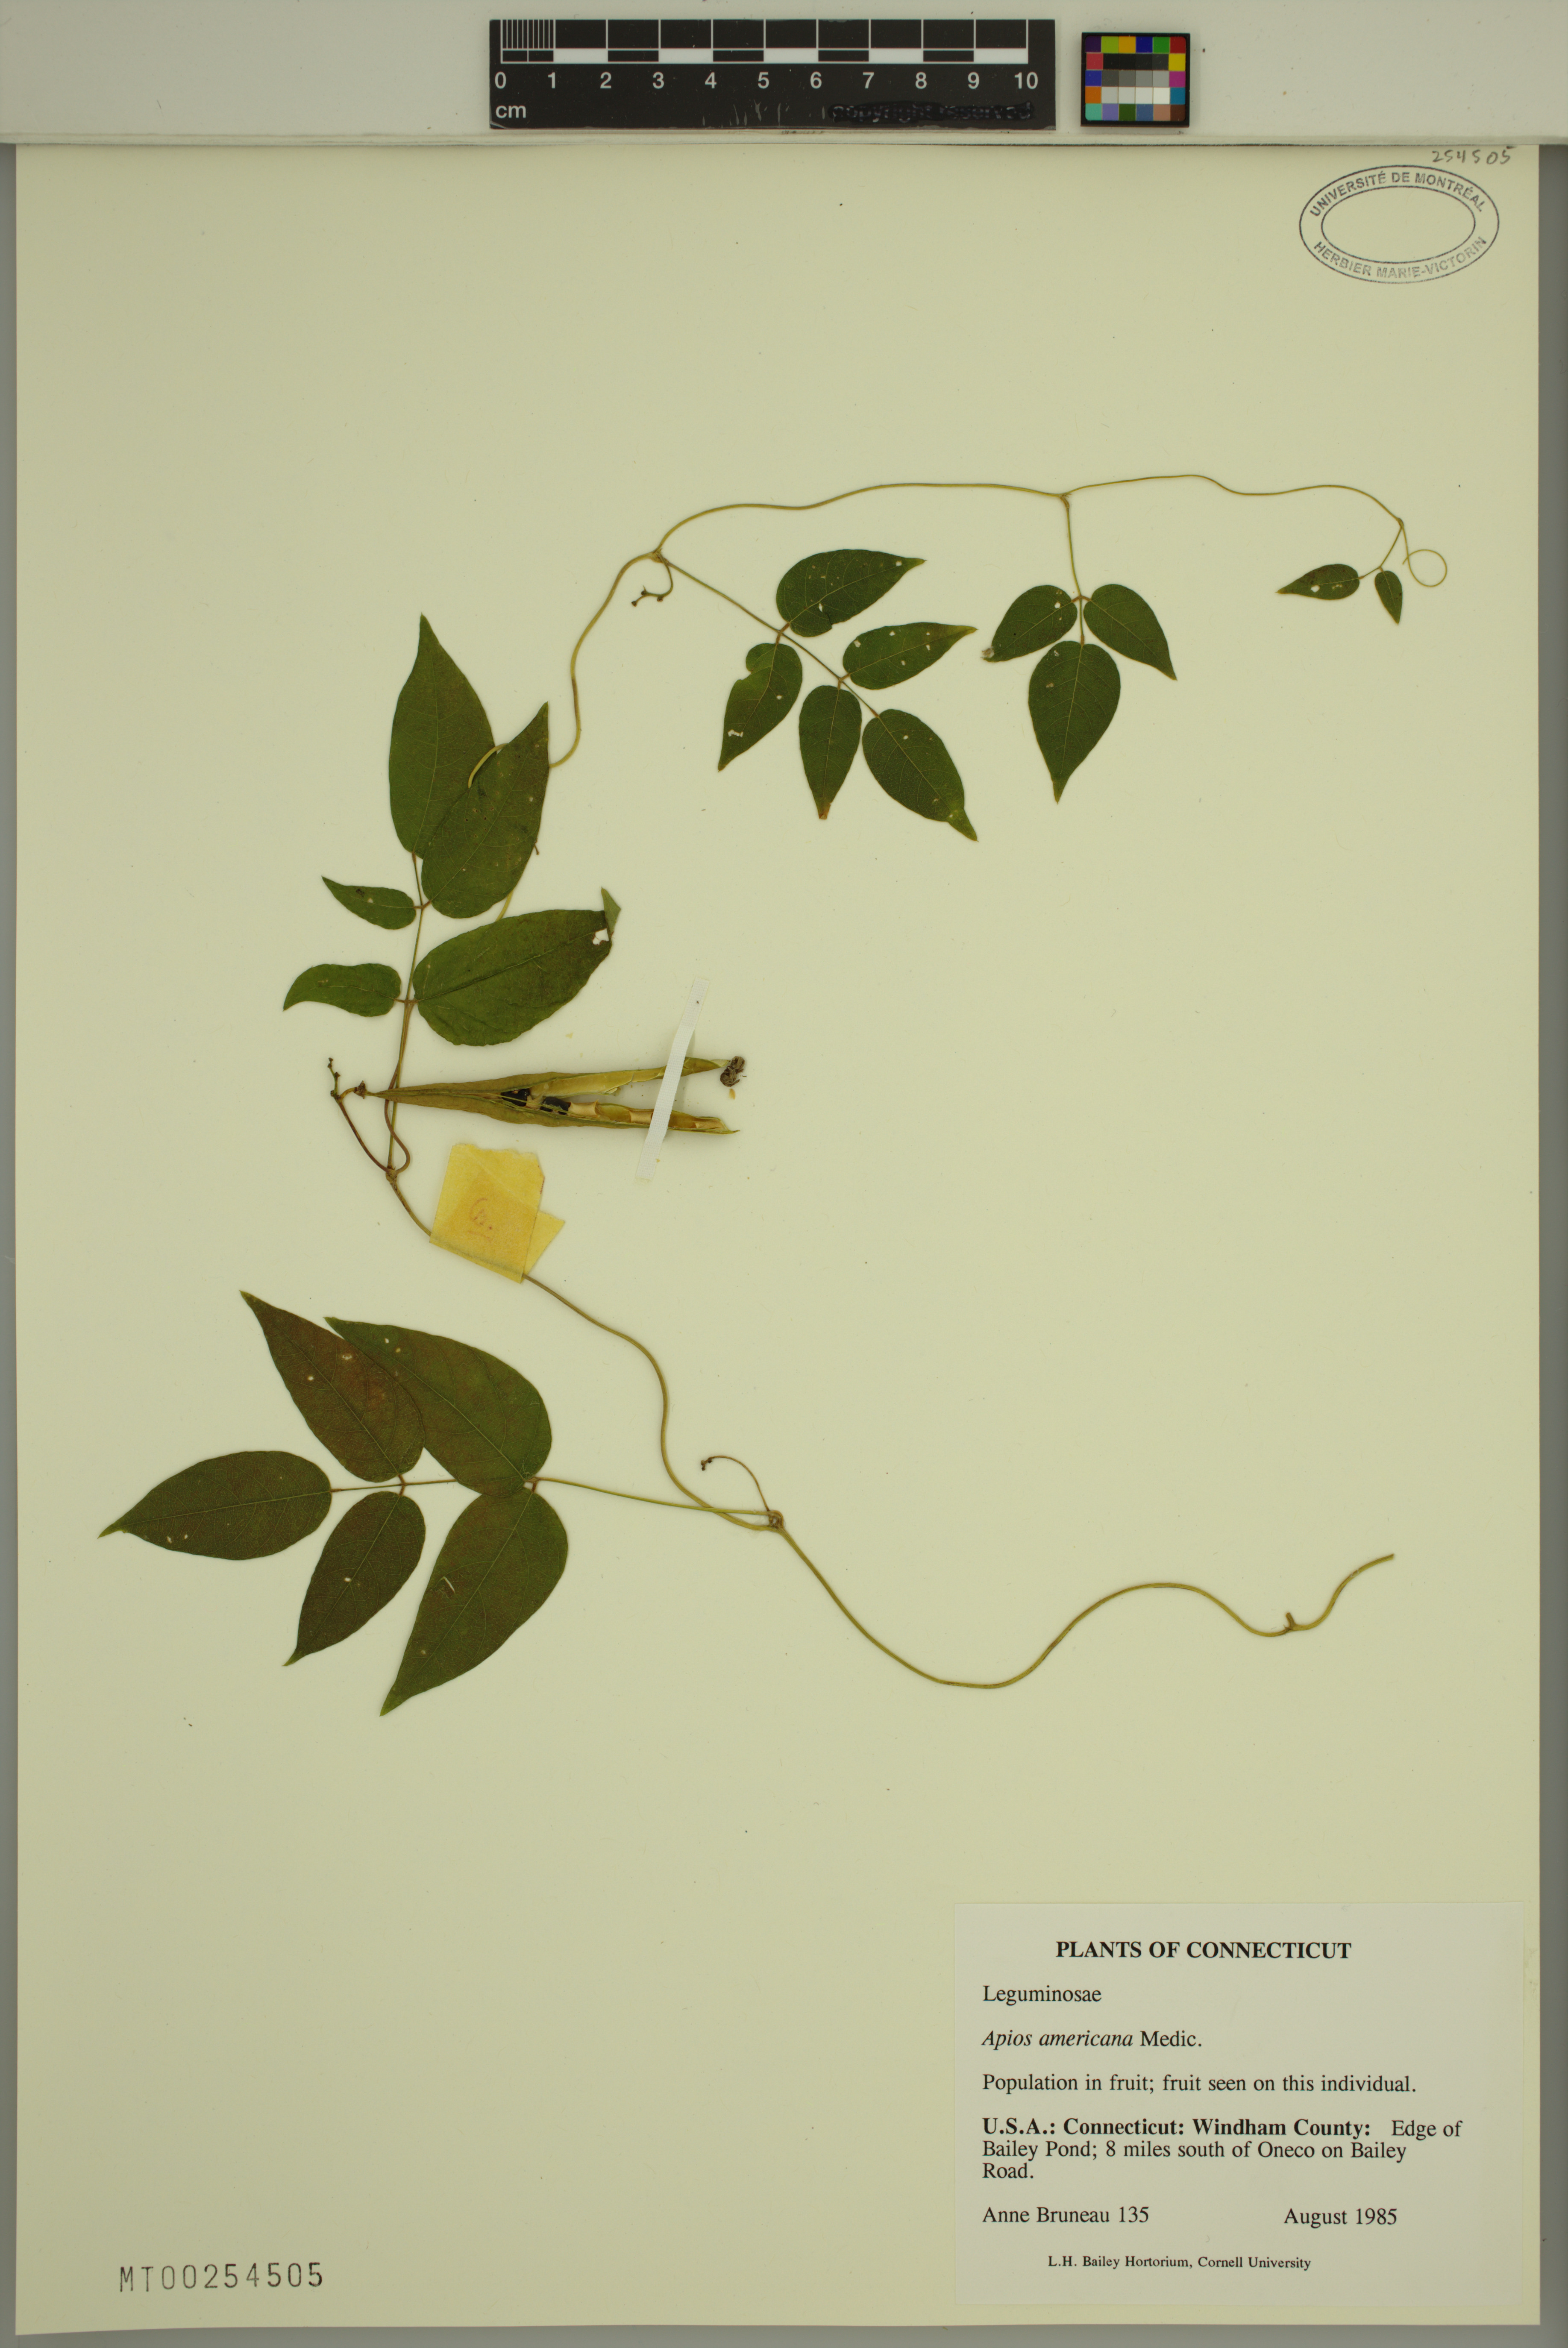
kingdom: Plantae
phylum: Tracheophyta
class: Magnoliopsida
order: Fabales
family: Fabaceae
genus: Apios
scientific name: Apios americana
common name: American potato-bean
